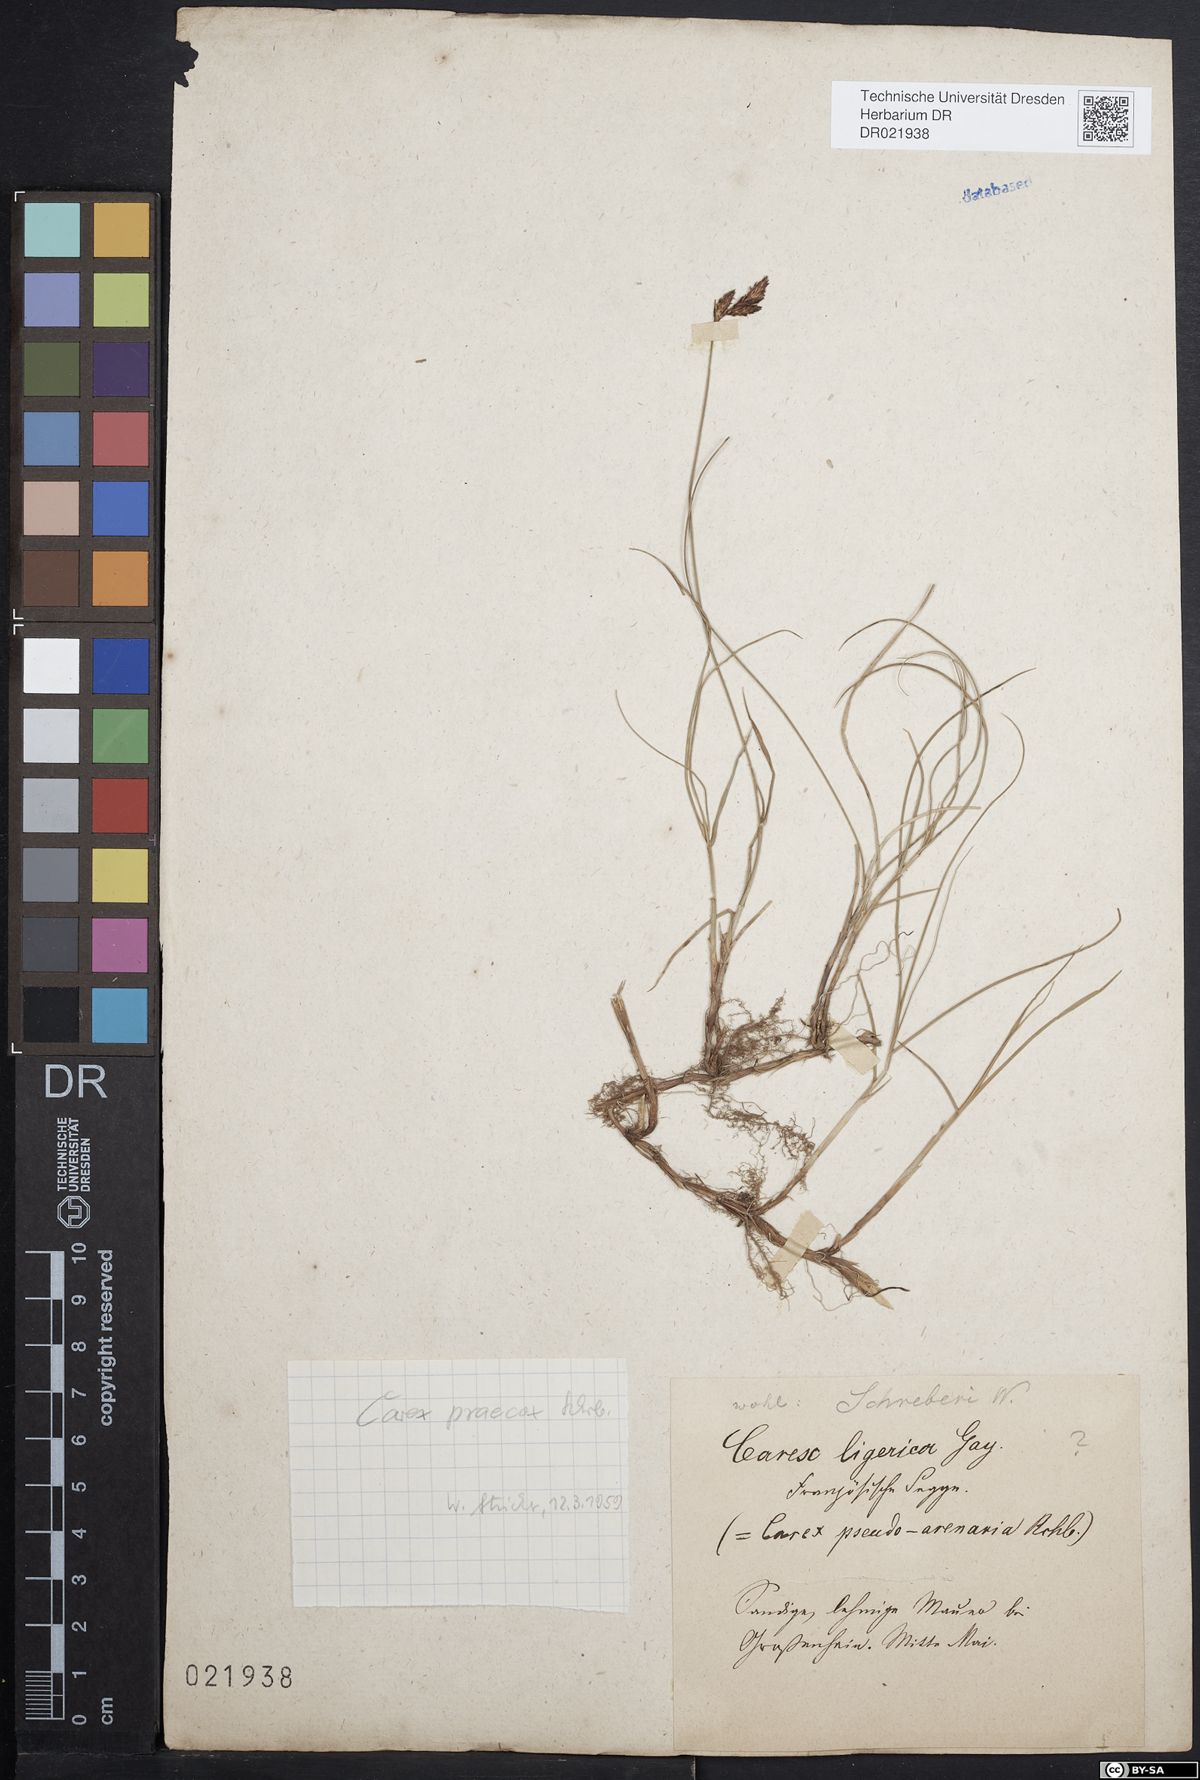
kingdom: Plantae
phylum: Tracheophyta
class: Liliopsida
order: Poales
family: Cyperaceae
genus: Carex
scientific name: Carex praecox
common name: Early sedge
